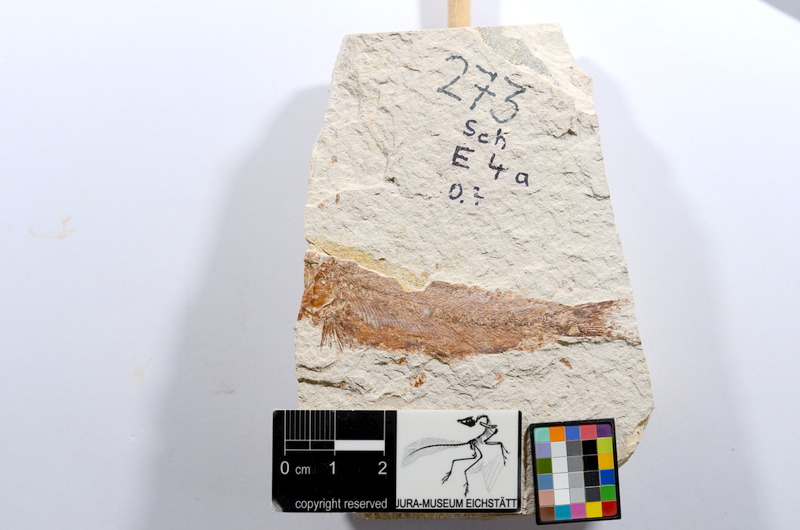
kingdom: Animalia
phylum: Chordata
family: Ascalaboidae
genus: Tharsis
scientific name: Tharsis dubius
